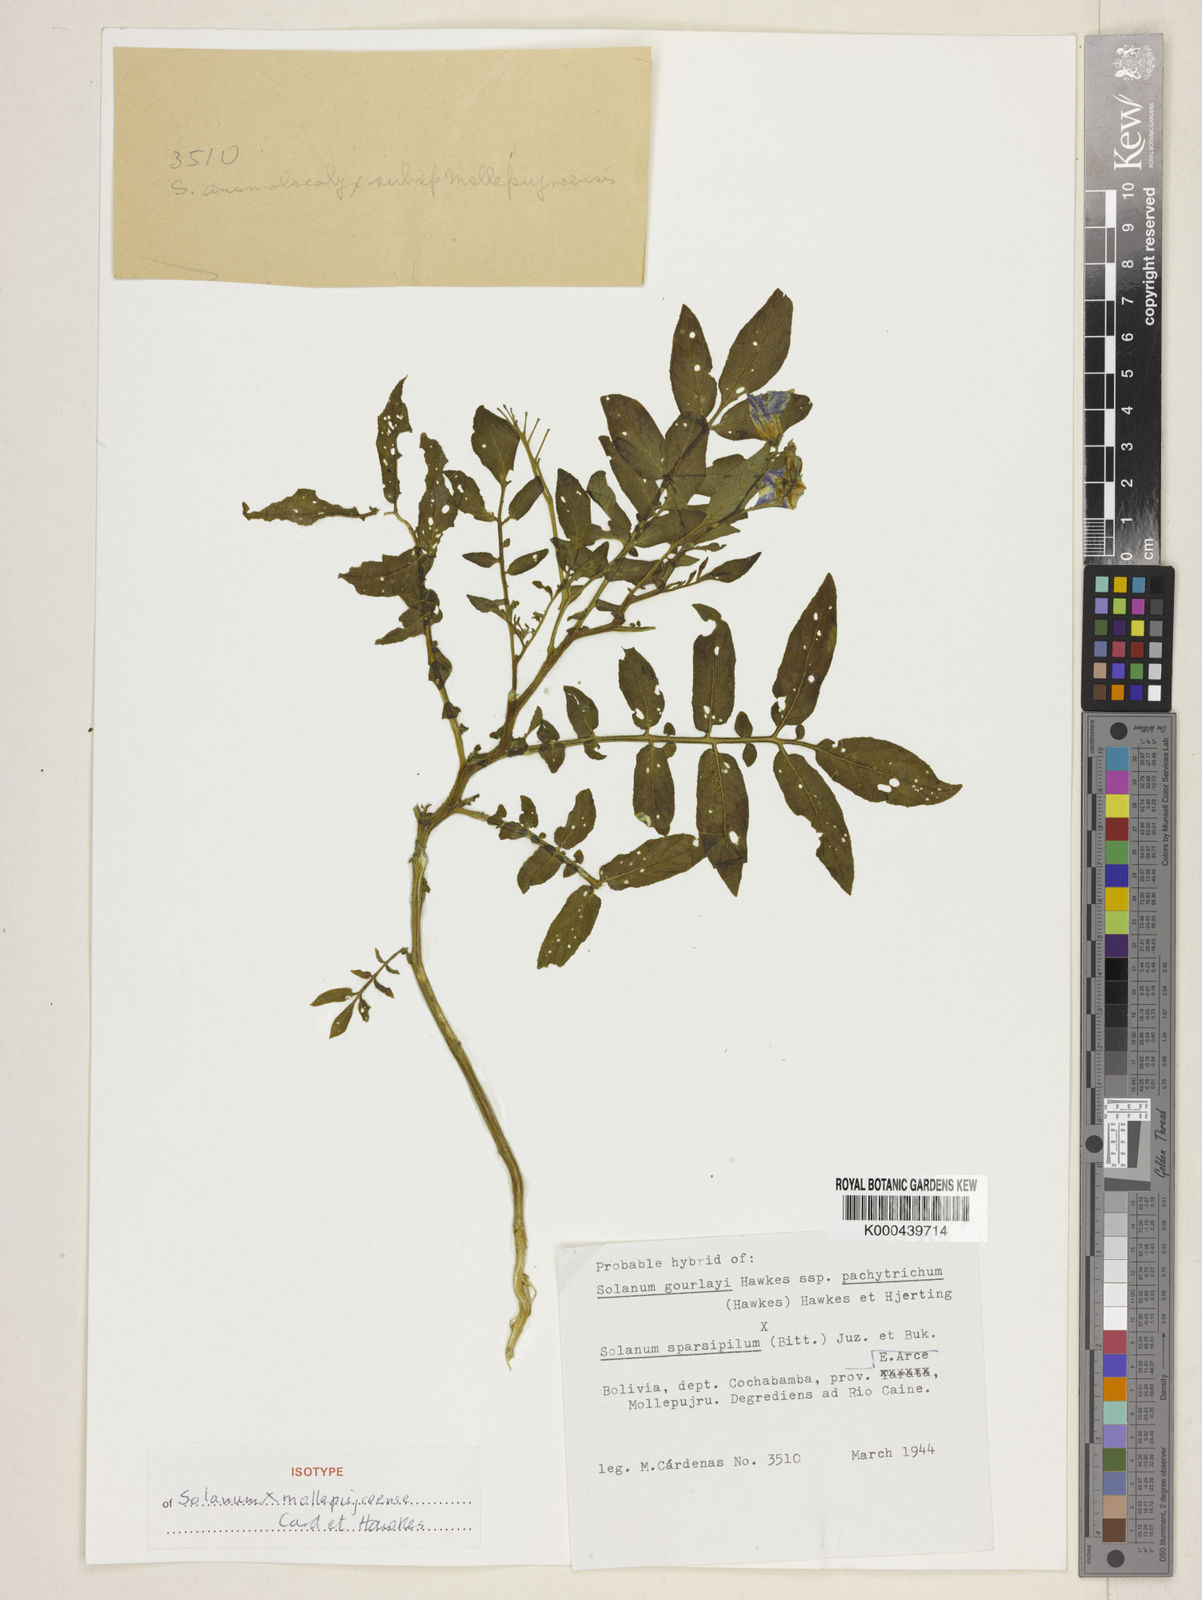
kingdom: Plantae
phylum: Tracheophyta
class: Magnoliopsida
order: Solanales
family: Solanaceae
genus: Solanum
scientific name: Solanum brevicaule
